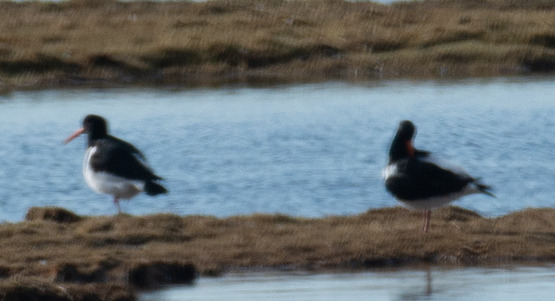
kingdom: Animalia
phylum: Chordata
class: Aves
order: Charadriiformes
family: Haematopodidae
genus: Haematopus
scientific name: Haematopus ostralegus
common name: Strandskade
